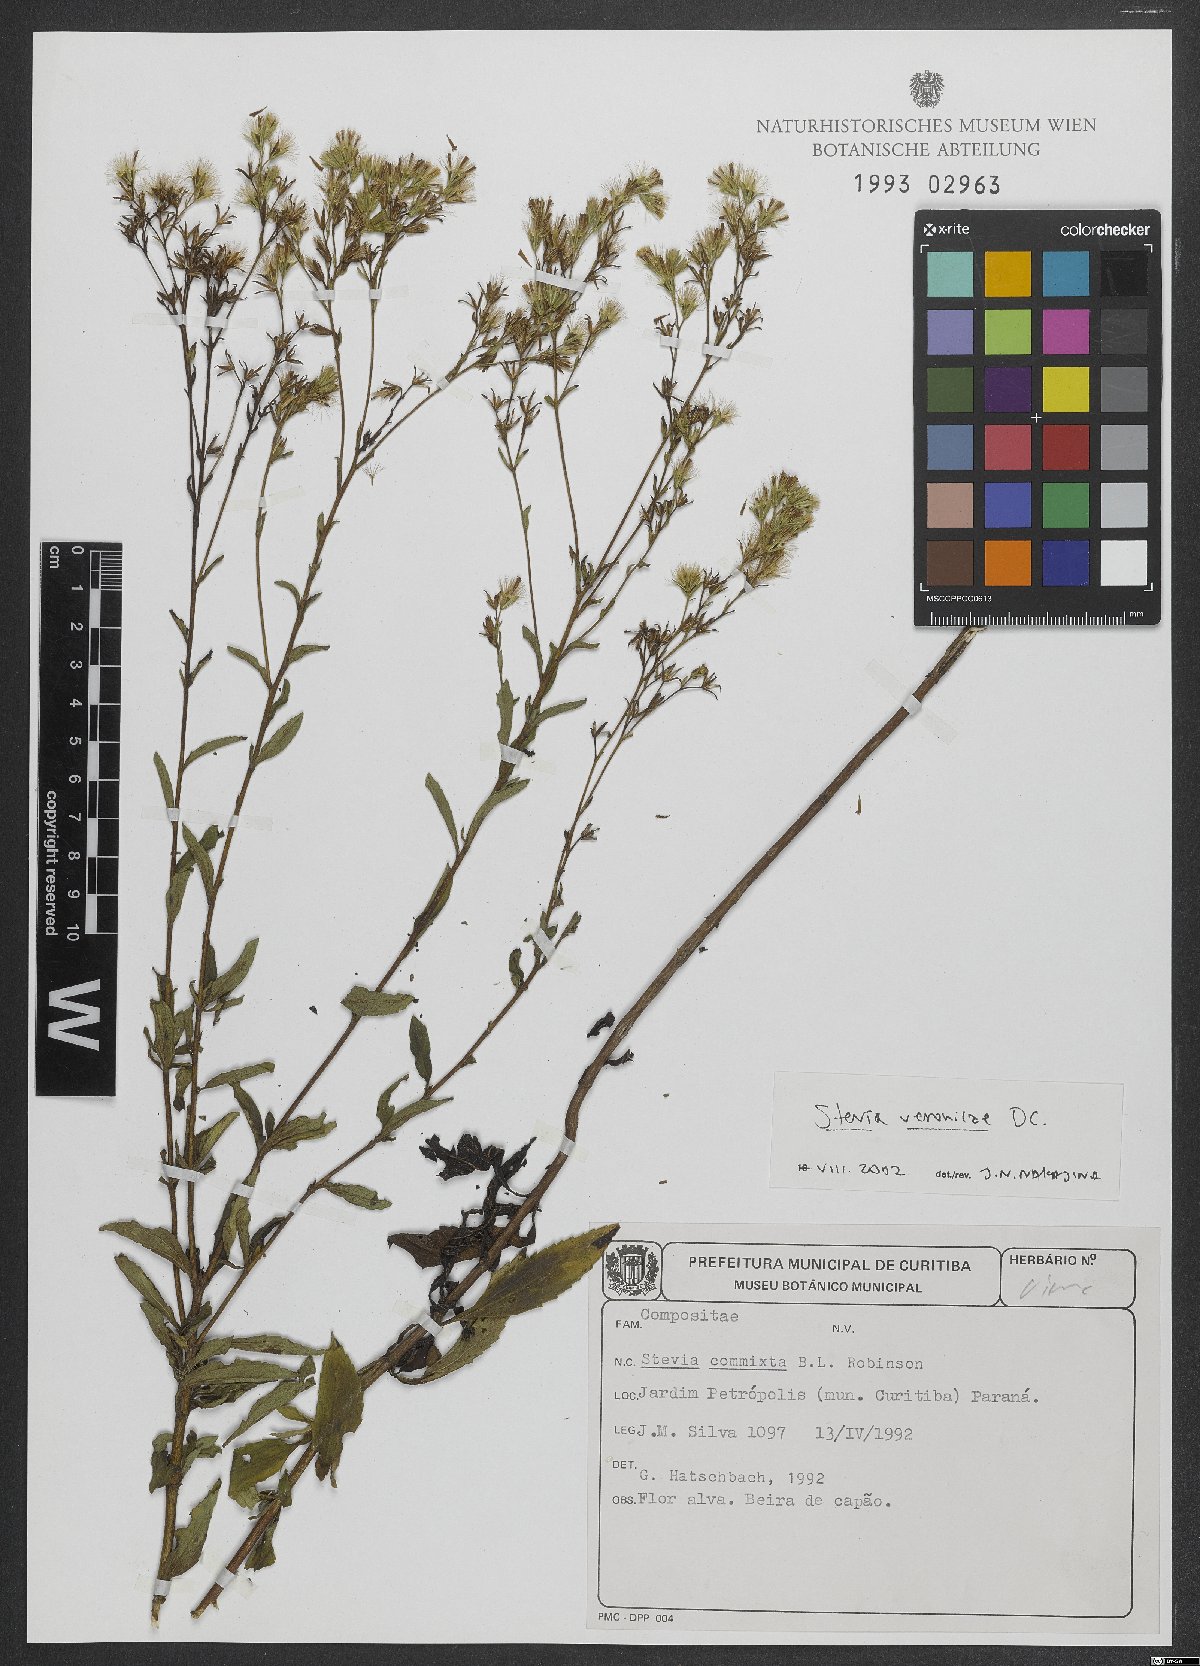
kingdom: Plantae
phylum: Tracheophyta
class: Magnoliopsida
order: Asterales
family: Asteraceae
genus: Stevia
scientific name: Stevia veronicae
